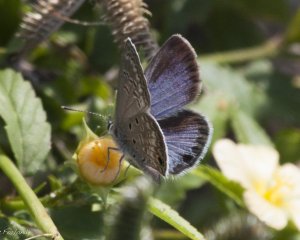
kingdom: Animalia
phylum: Arthropoda
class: Insecta
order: Lepidoptera
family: Lycaenidae
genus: Hemiargus
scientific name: Hemiargus ceraunus
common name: Ceraunus Blue
